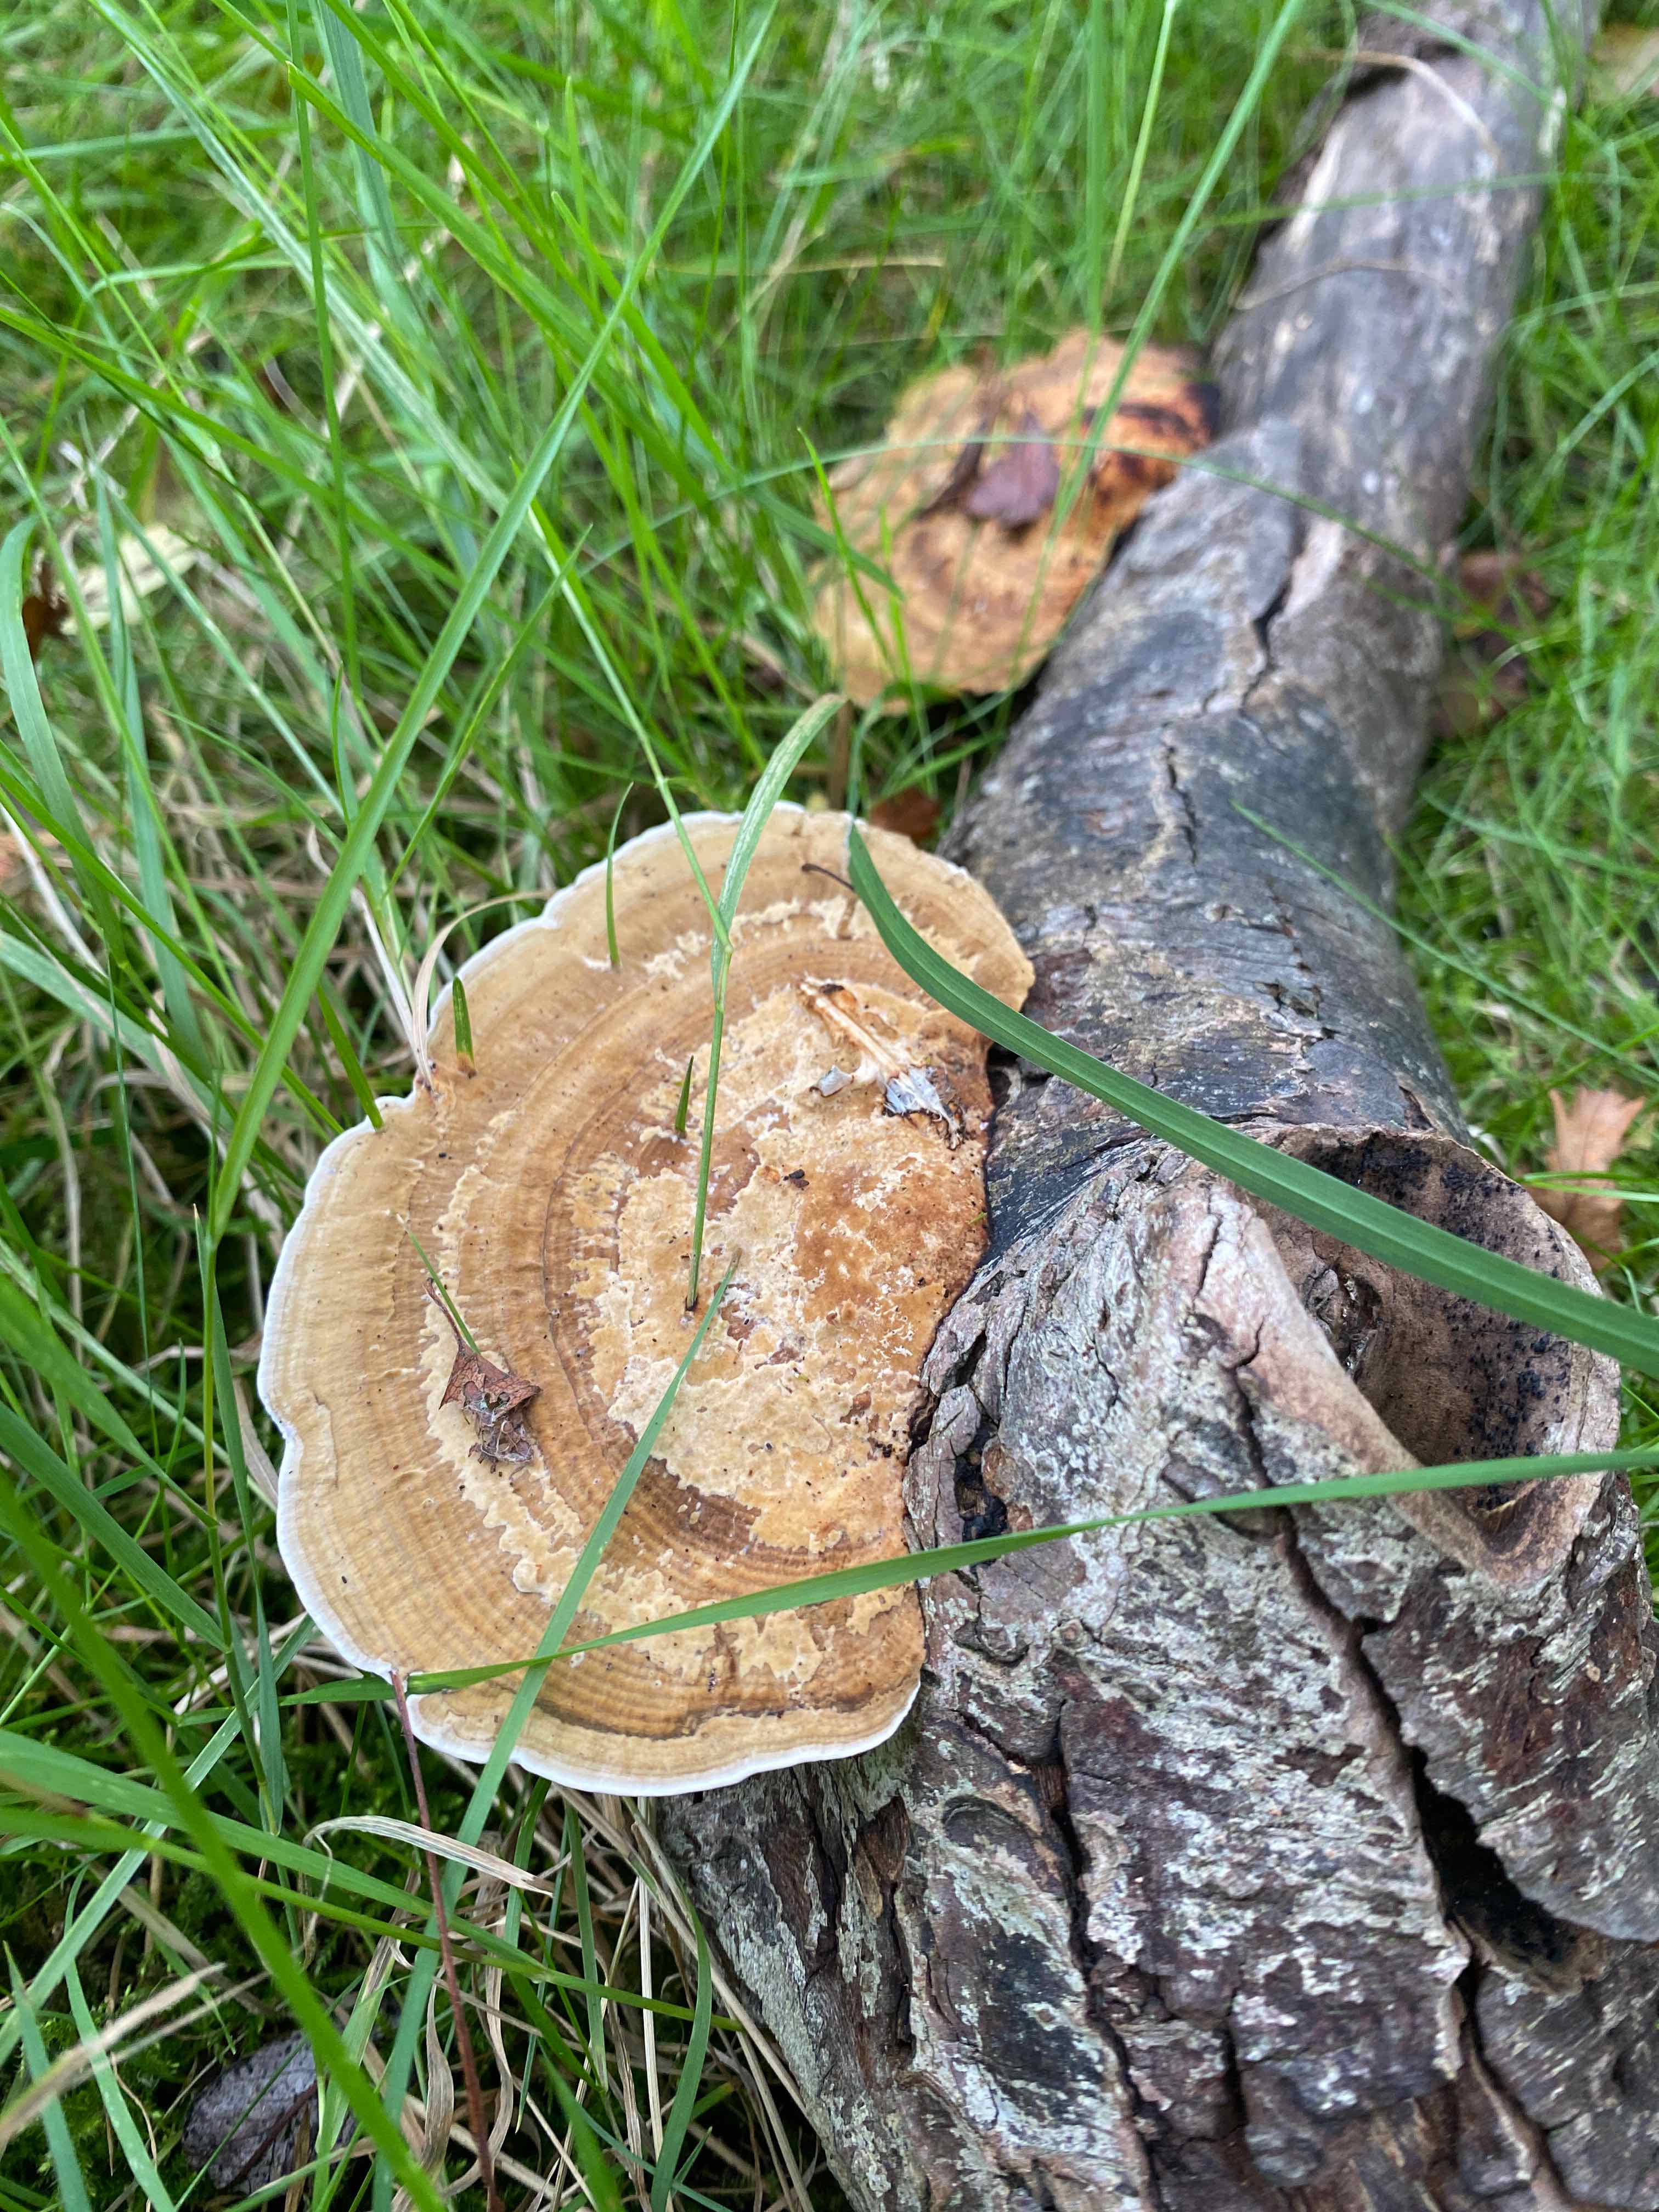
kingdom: Fungi
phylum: Basidiomycota
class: Agaricomycetes
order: Polyporales
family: Polyporaceae
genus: Daedaleopsis
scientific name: Daedaleopsis confragosa
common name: rødmende læderporesvamp
